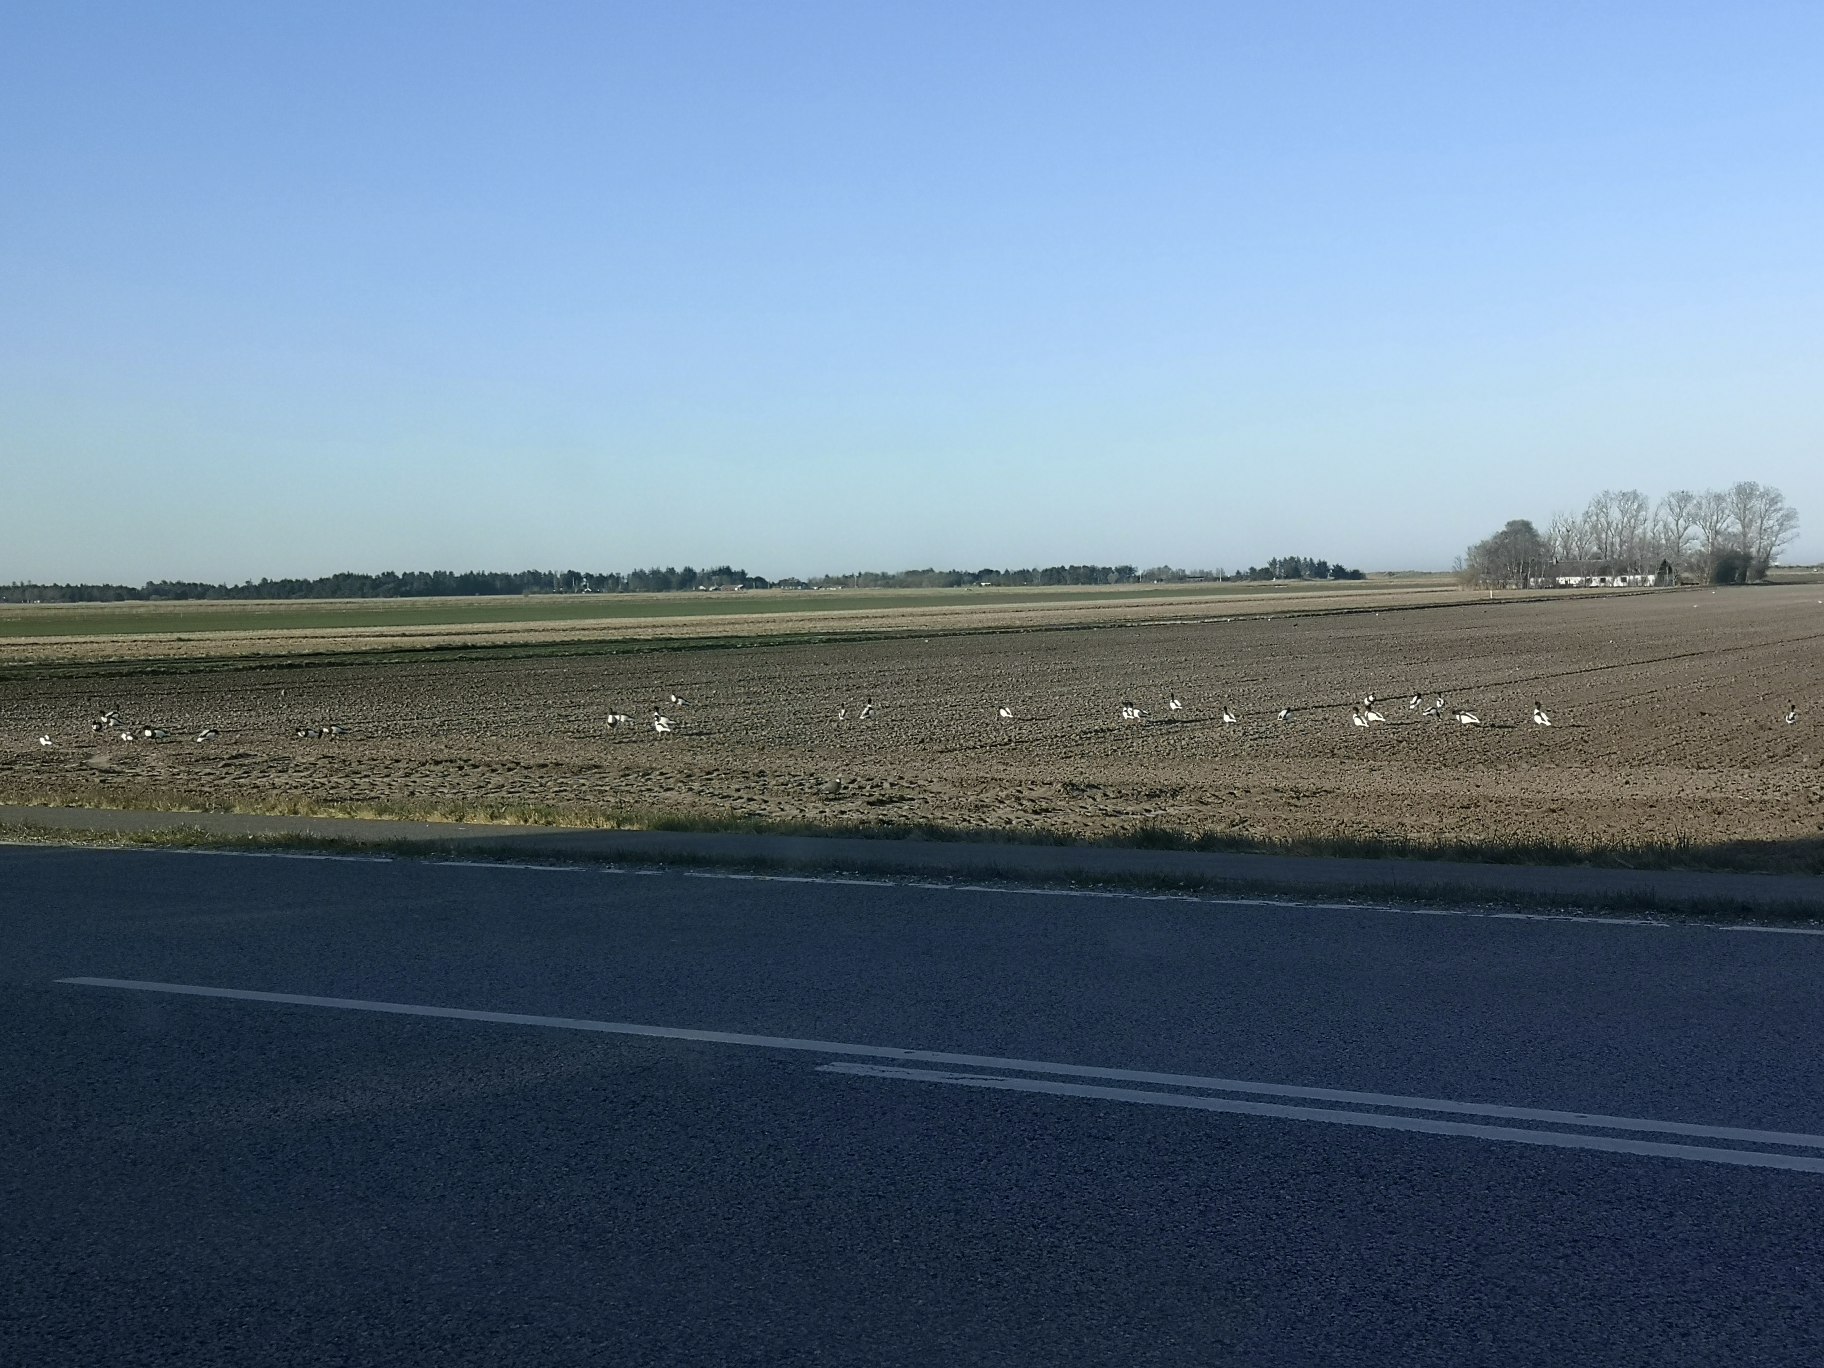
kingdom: Animalia
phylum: Chordata
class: Aves
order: Anseriformes
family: Anatidae
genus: Tadorna
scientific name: Tadorna tadorna
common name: Gravand
